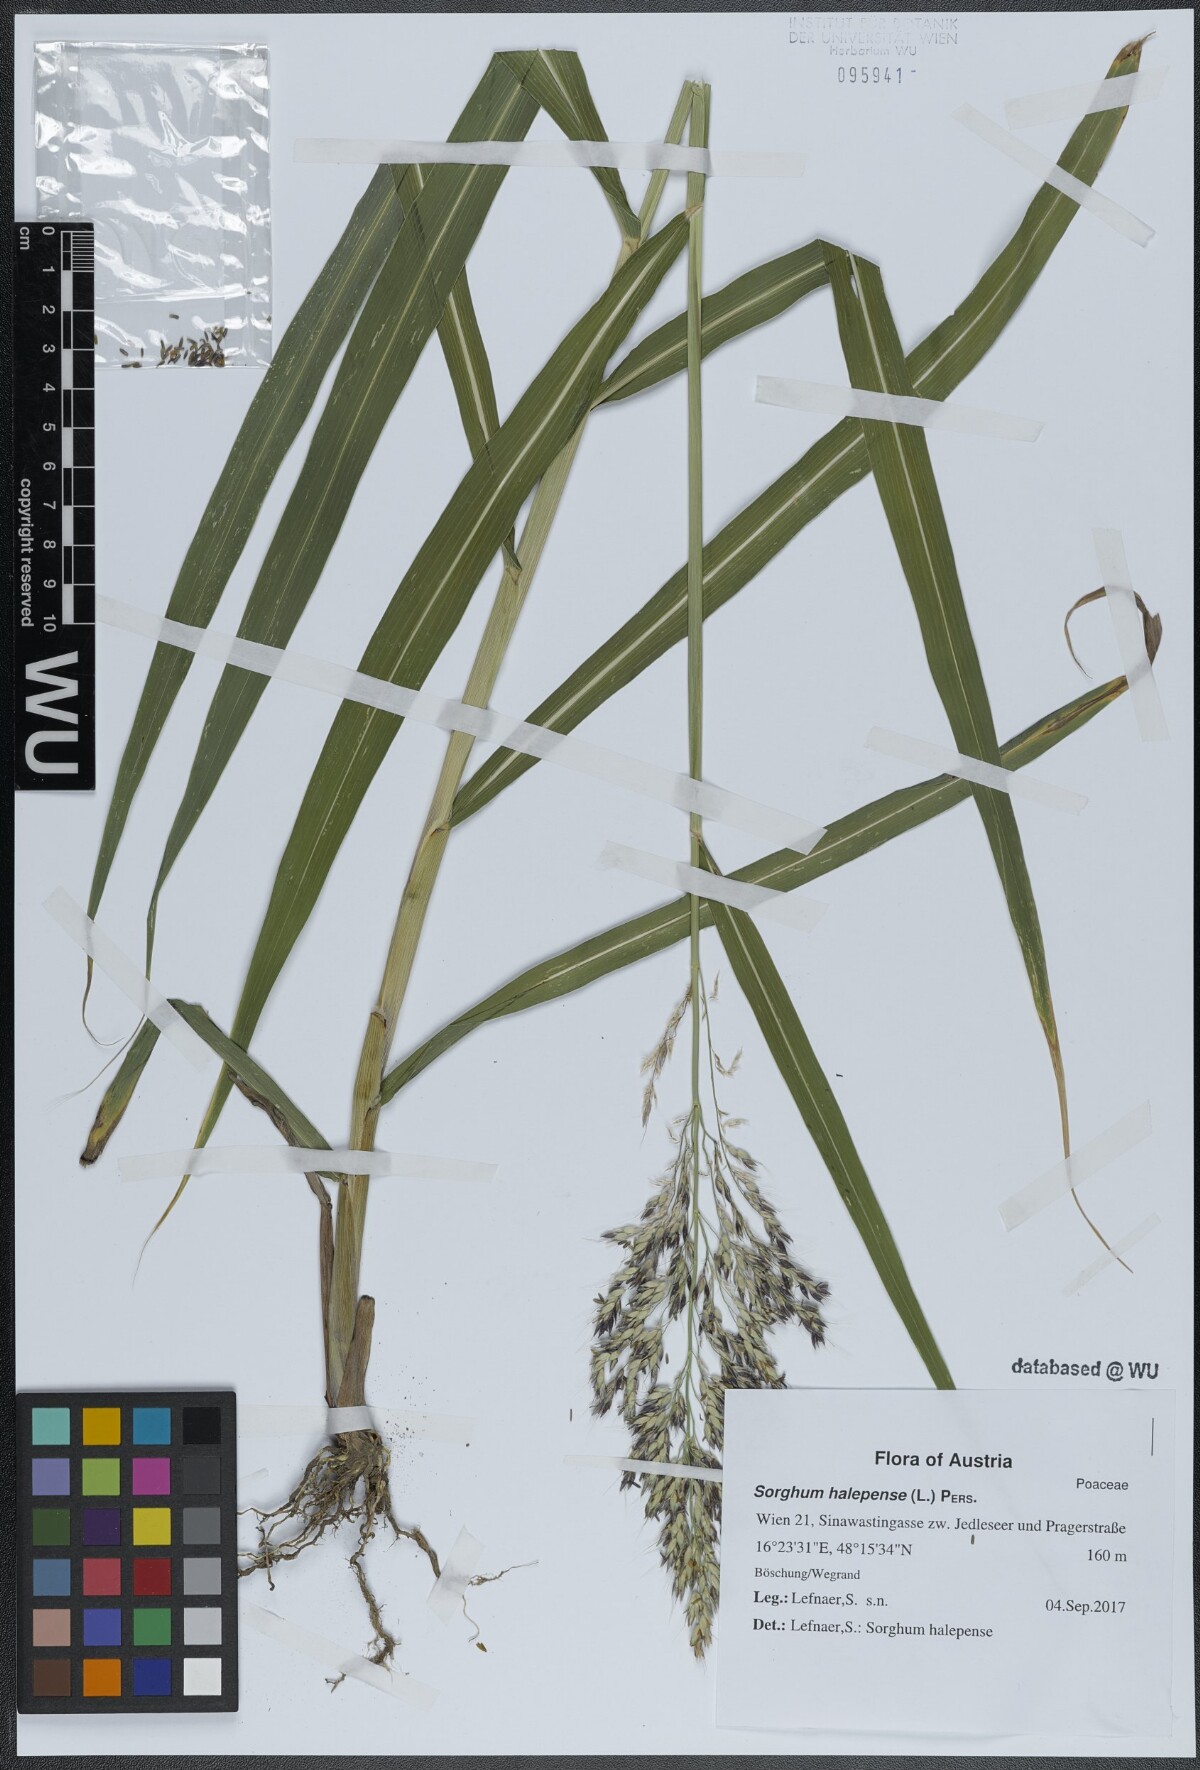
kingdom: Plantae
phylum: Tracheophyta
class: Liliopsida
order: Poales
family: Poaceae
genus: Sorghum
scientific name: Sorghum halepense
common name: Johnson-grass
